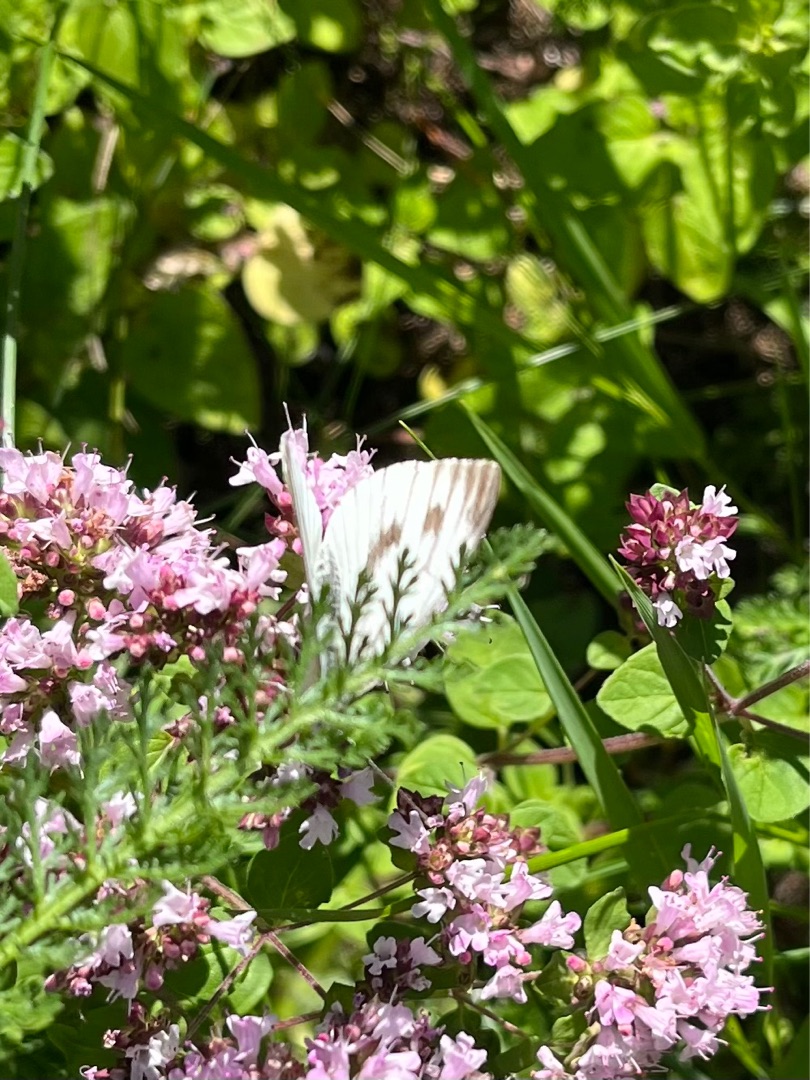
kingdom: Animalia
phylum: Arthropoda
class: Insecta
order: Lepidoptera
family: Pieridae
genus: Pieris
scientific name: Pieris napi
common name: Grønåret kålsommerfugl
